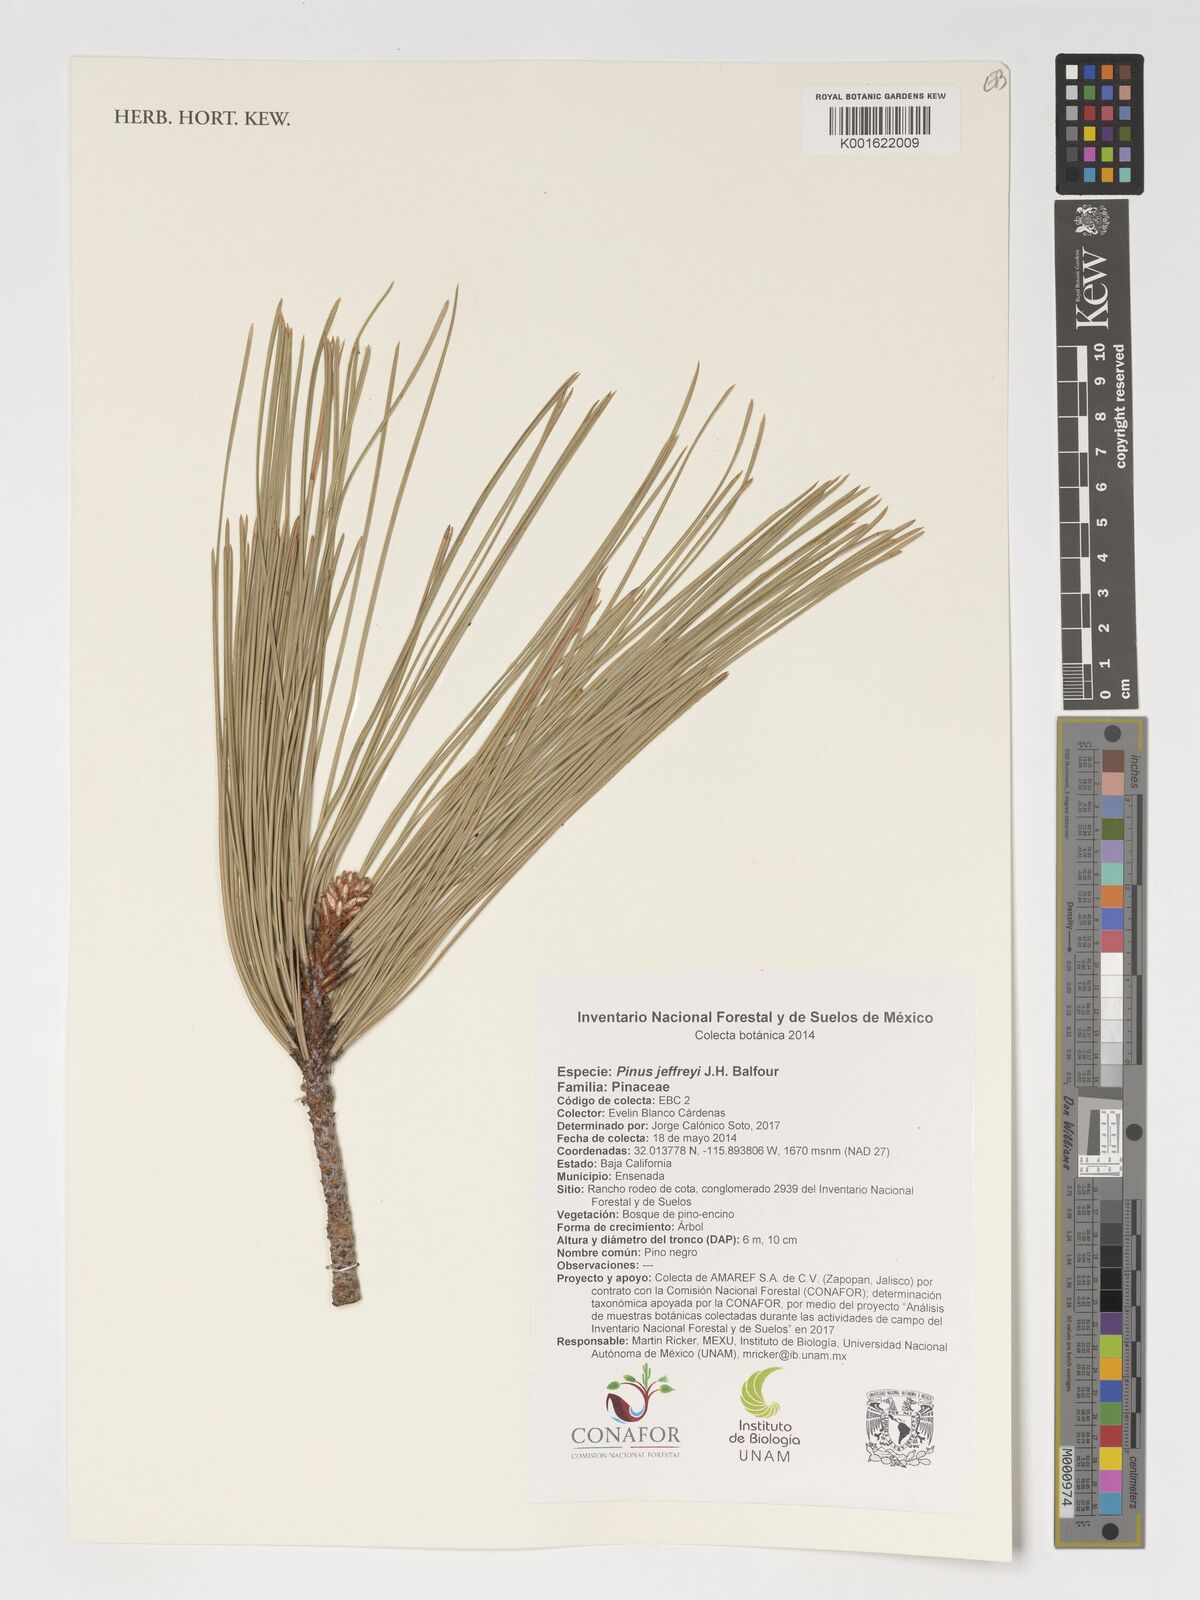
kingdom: Plantae
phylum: Tracheophyta
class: Pinopsida
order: Pinales
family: Pinaceae
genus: Pinus
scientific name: Pinus jeffreyi
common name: Jeffrey pine
